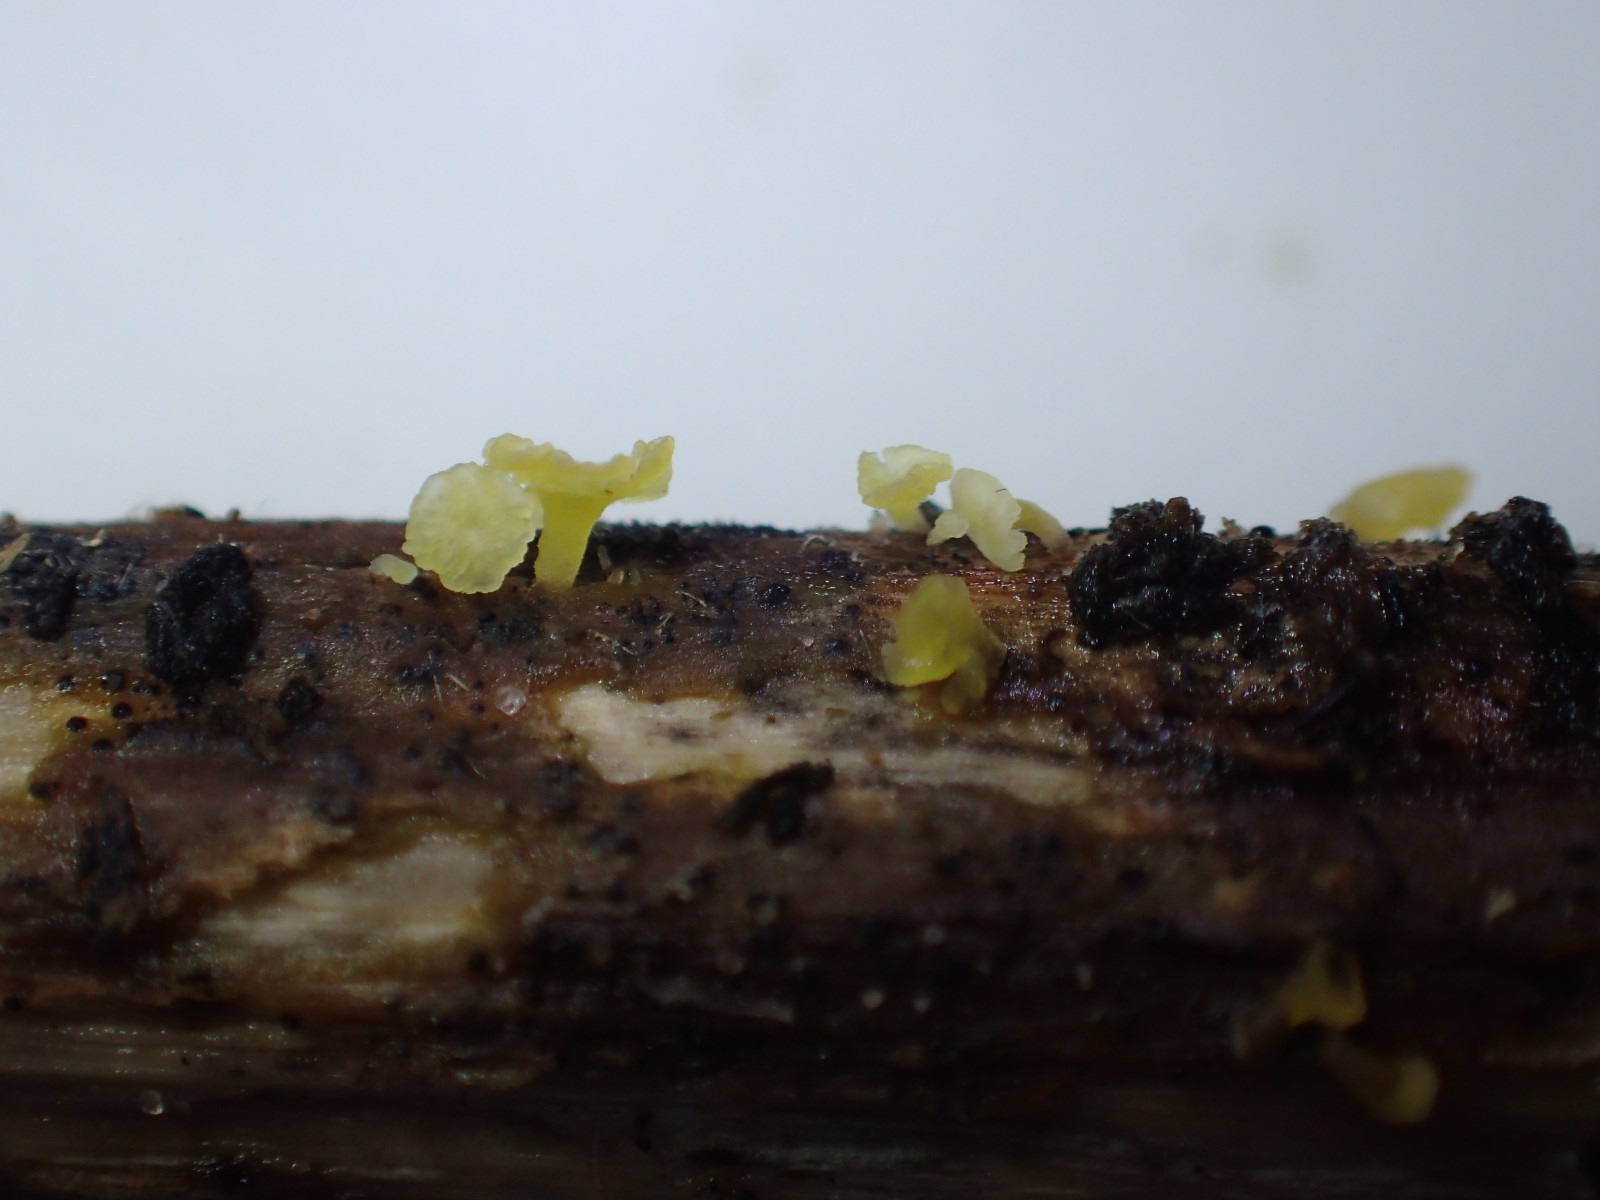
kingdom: Fungi
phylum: Basidiomycota
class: Agaricomycetes
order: Agaricales
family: Marasmiaceae
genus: Calyptella
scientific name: Calyptella campanula
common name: gul nældehue
